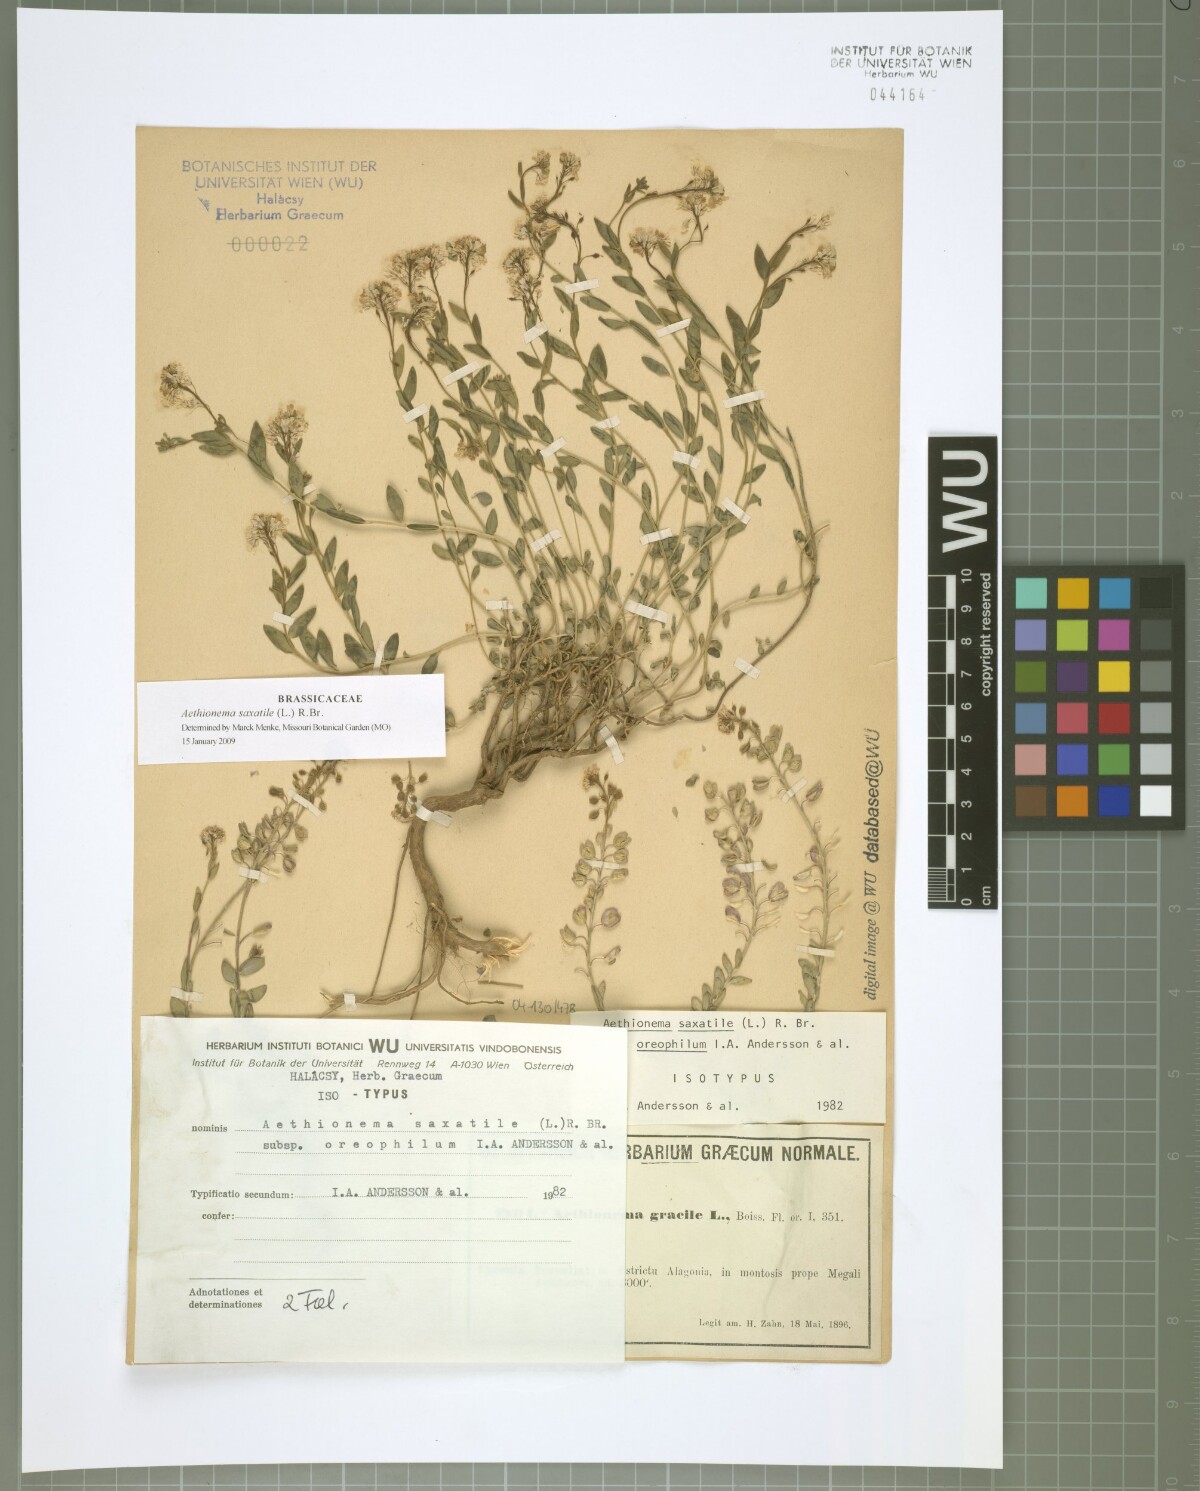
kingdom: Plantae
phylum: Tracheophyta
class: Magnoliopsida
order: Brassicales
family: Brassicaceae
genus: Aethionema
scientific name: Aethionema saxatile
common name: Burnt candytuft
